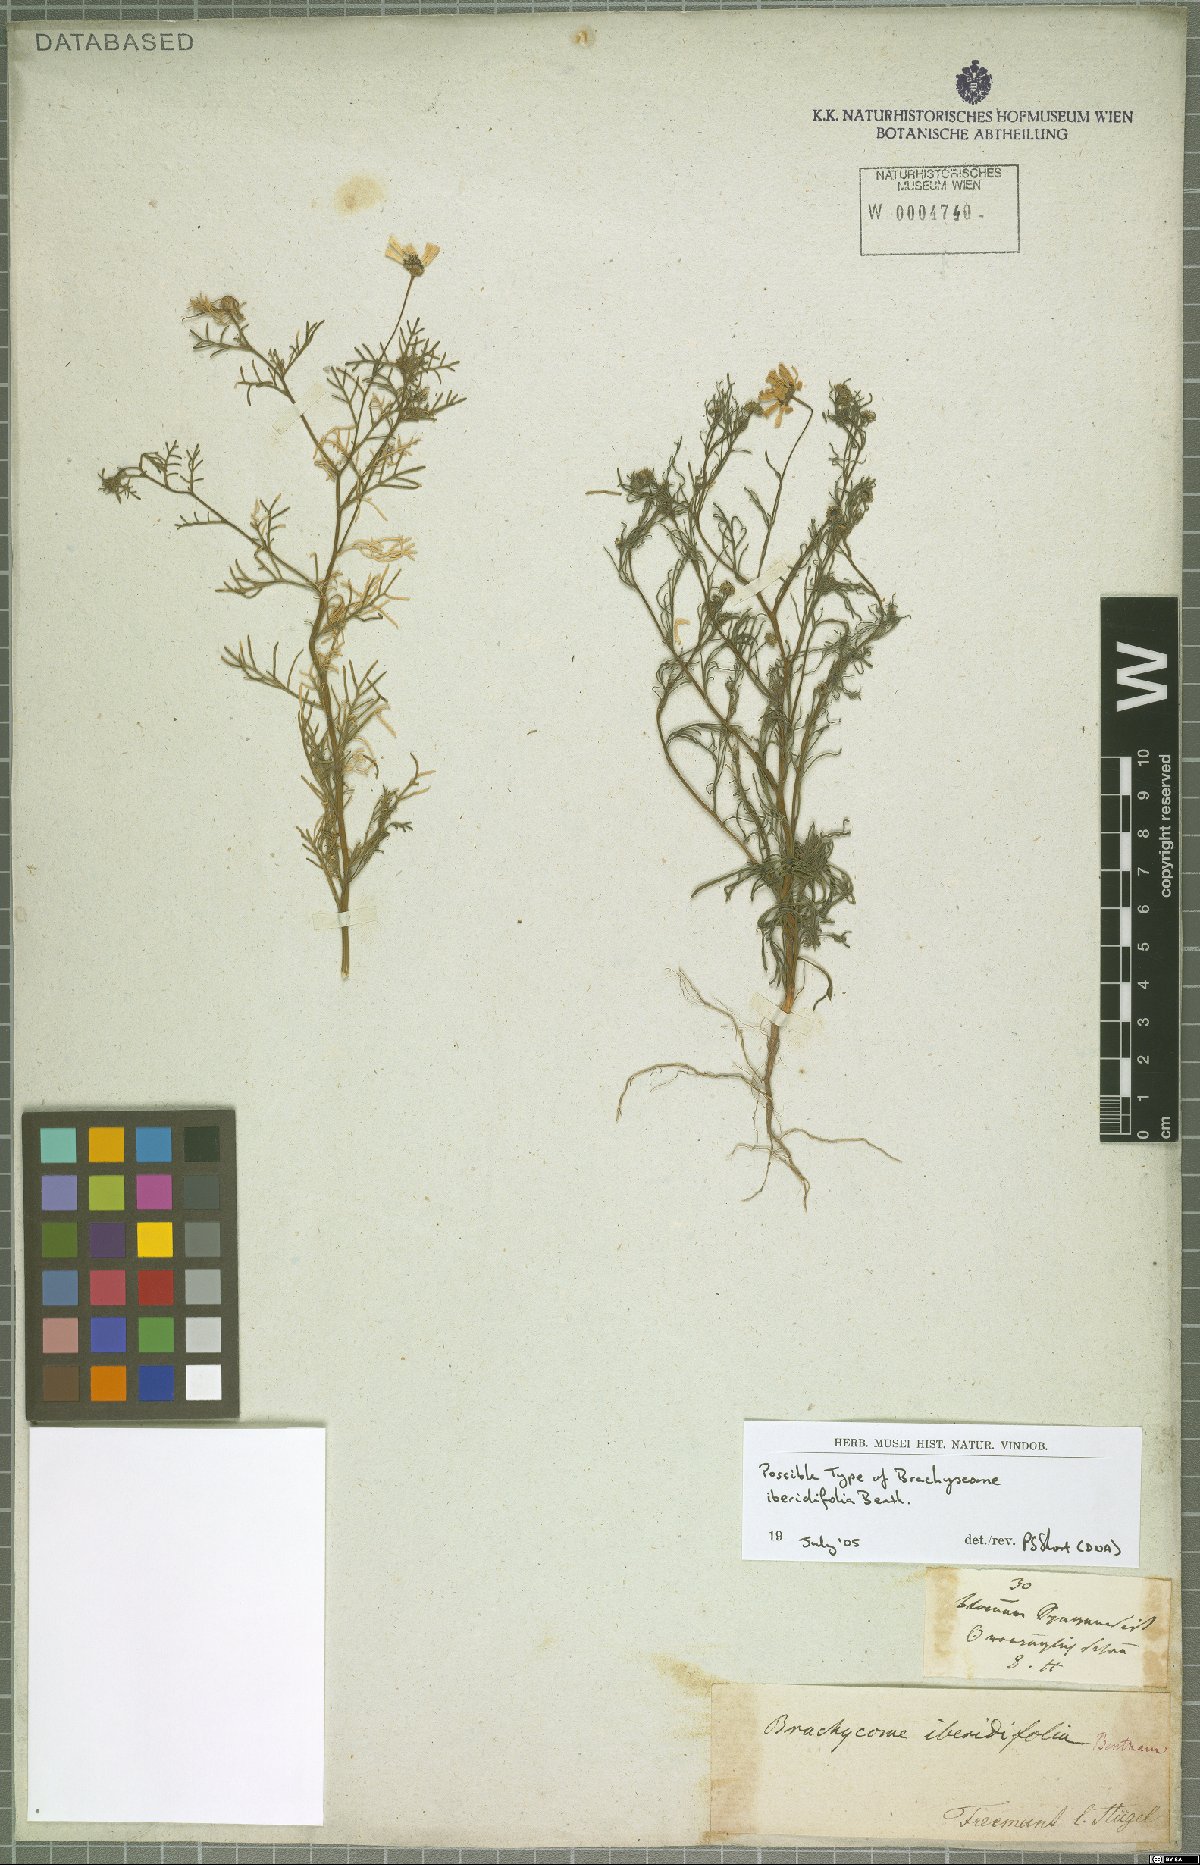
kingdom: Plantae
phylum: Tracheophyta
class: Magnoliopsida
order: Asterales
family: Asteraceae
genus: Brachyscome
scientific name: Brachyscome iberidifolia
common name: Swan river daisy
